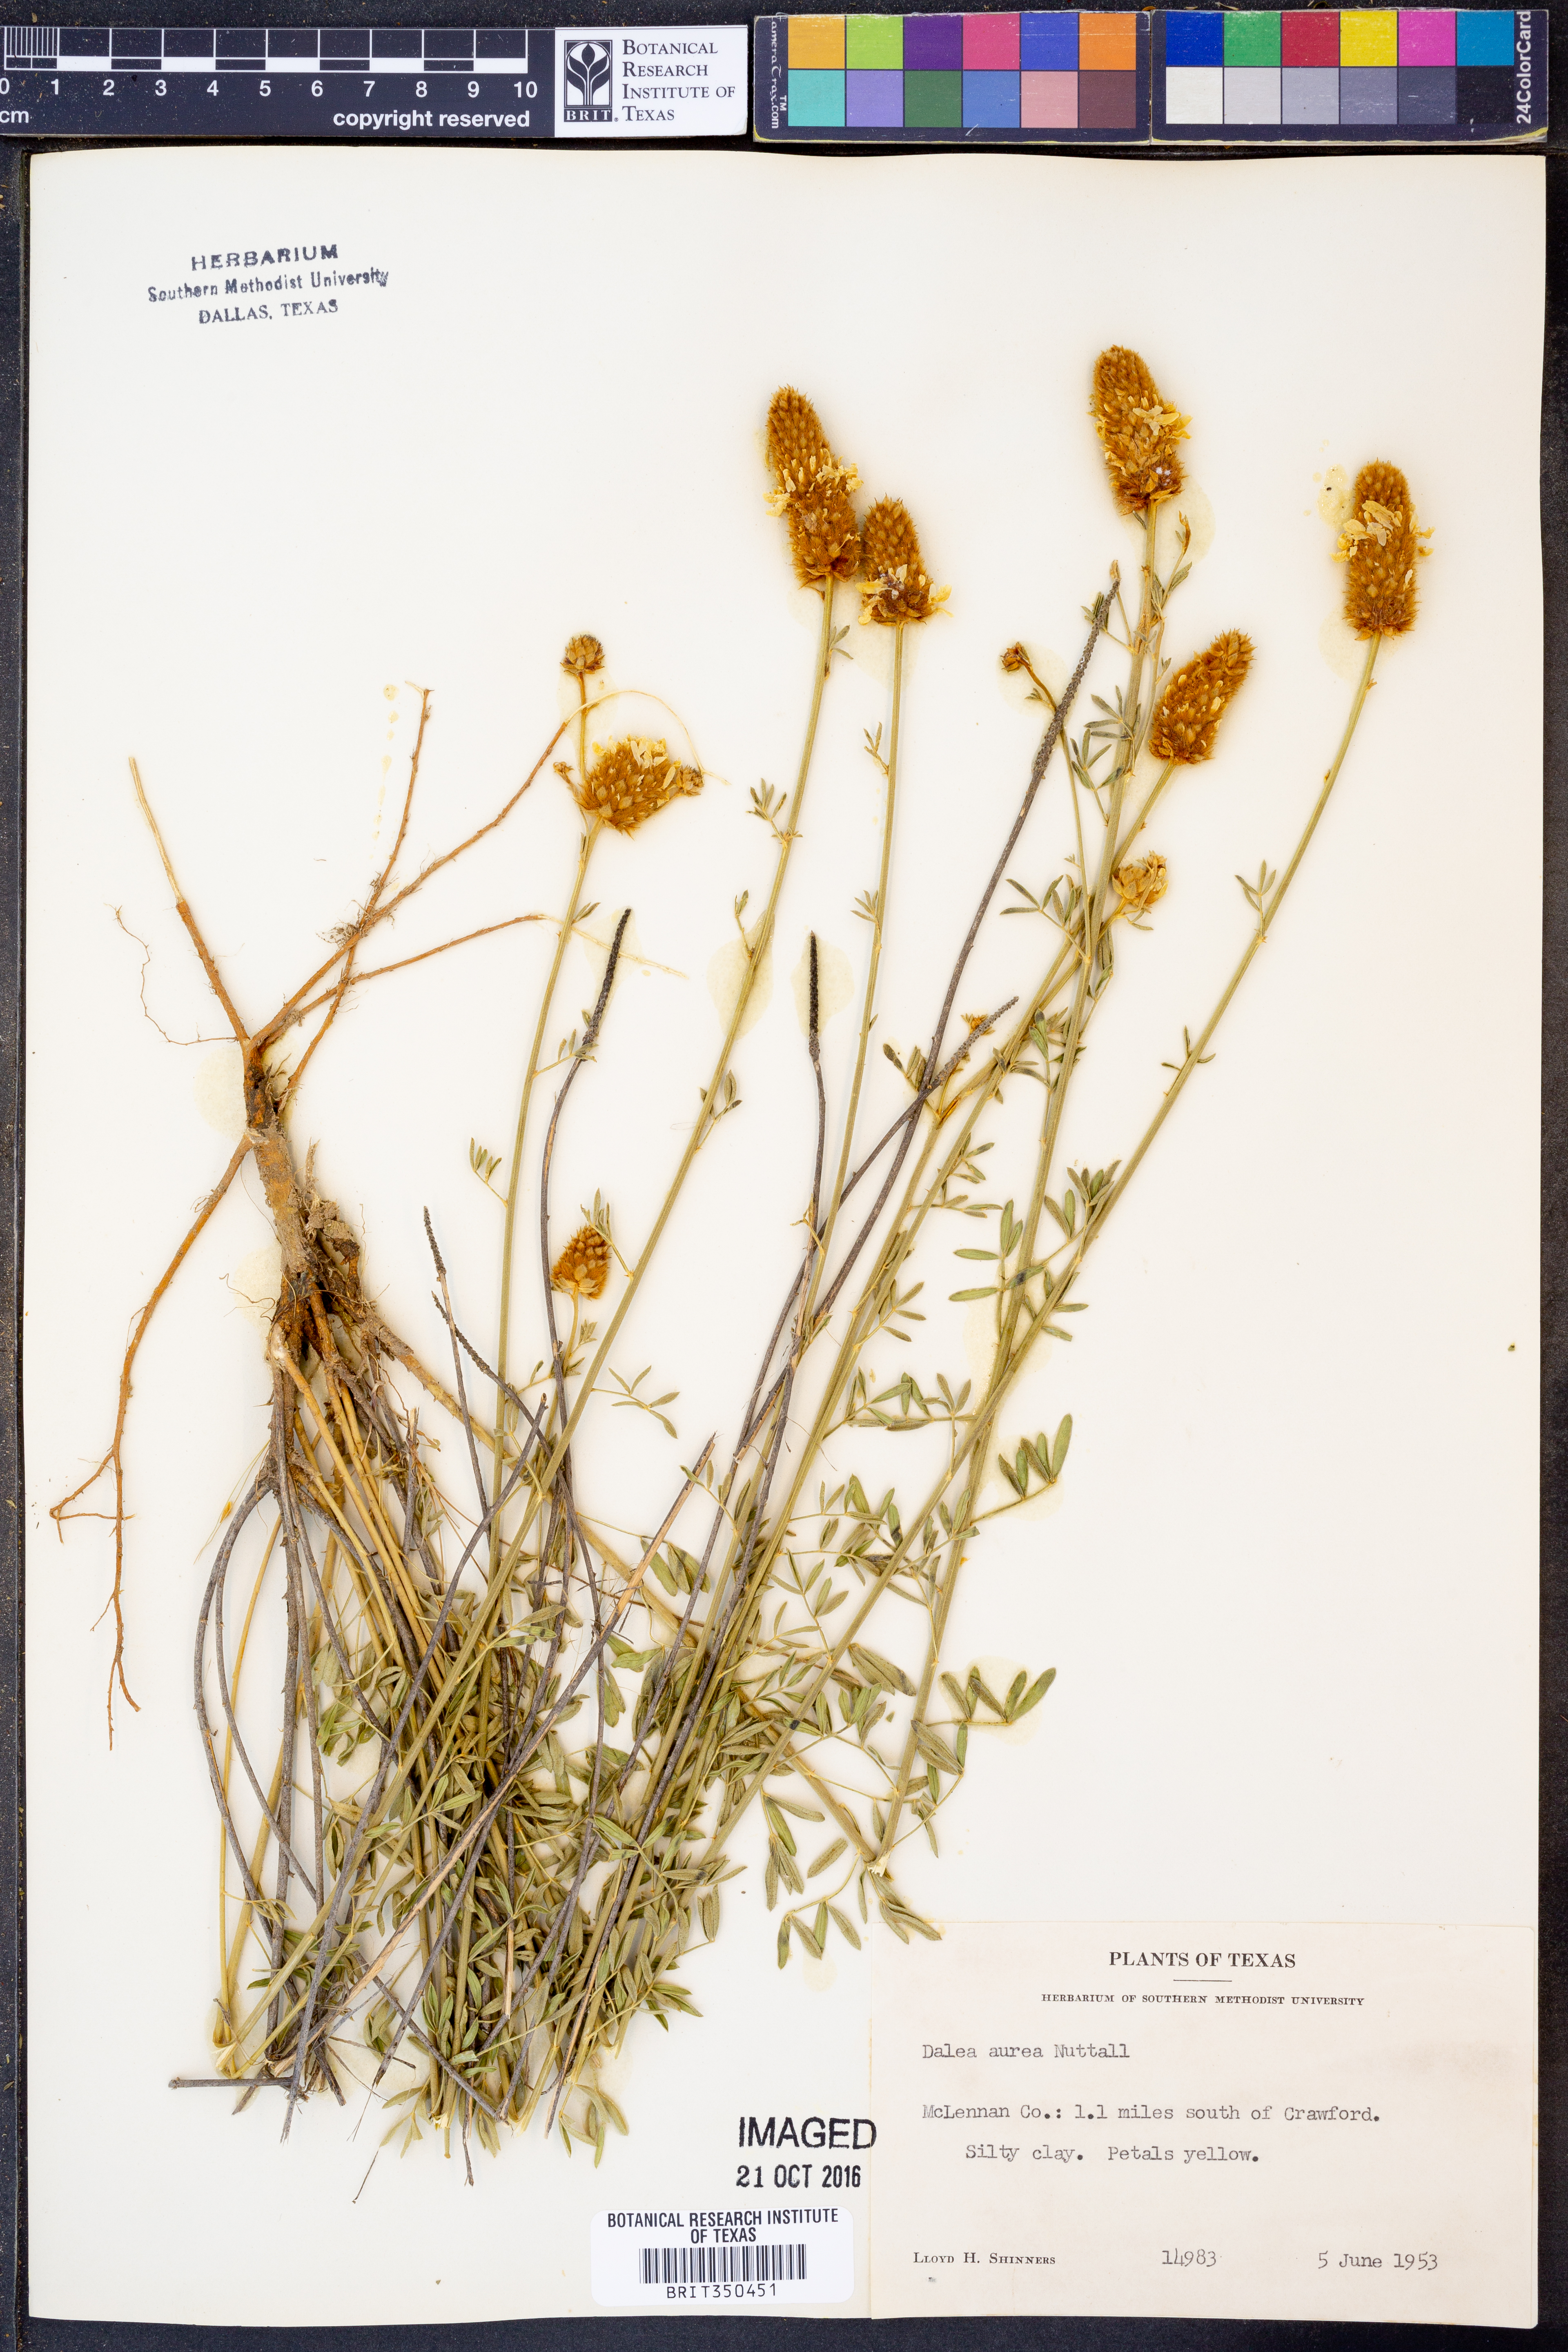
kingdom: Plantae
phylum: Tracheophyta
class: Magnoliopsida
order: Fabales
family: Fabaceae
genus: Dalea
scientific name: Dalea aurea
